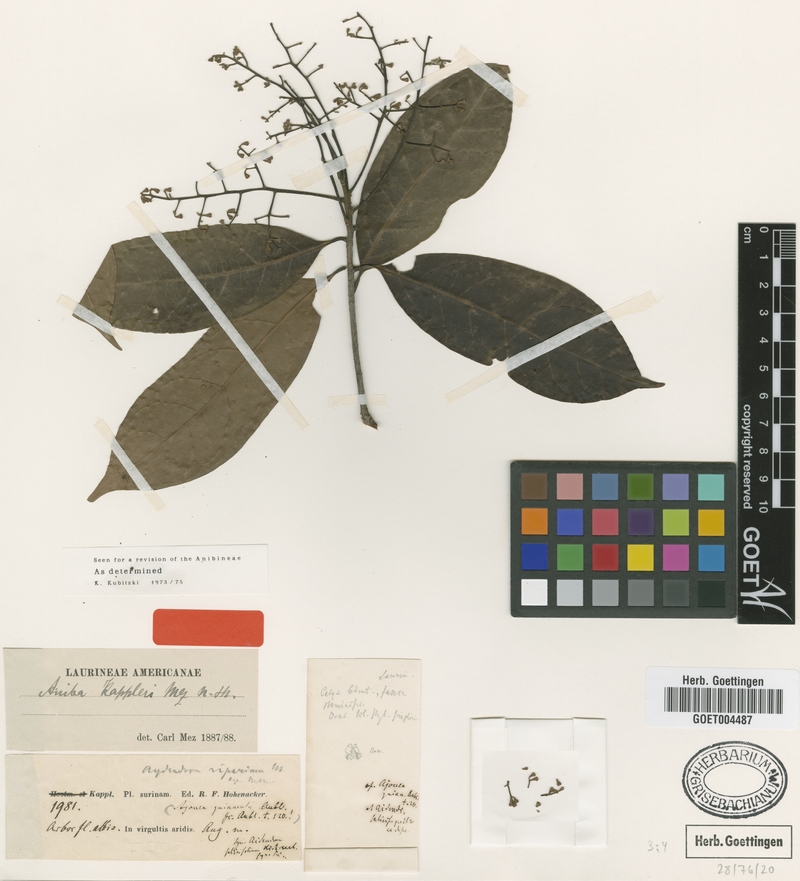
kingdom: Plantae
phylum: Tracheophyta
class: Magnoliopsida
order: Laurales
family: Lauraceae
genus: Aniba
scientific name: Aniba kappleri
